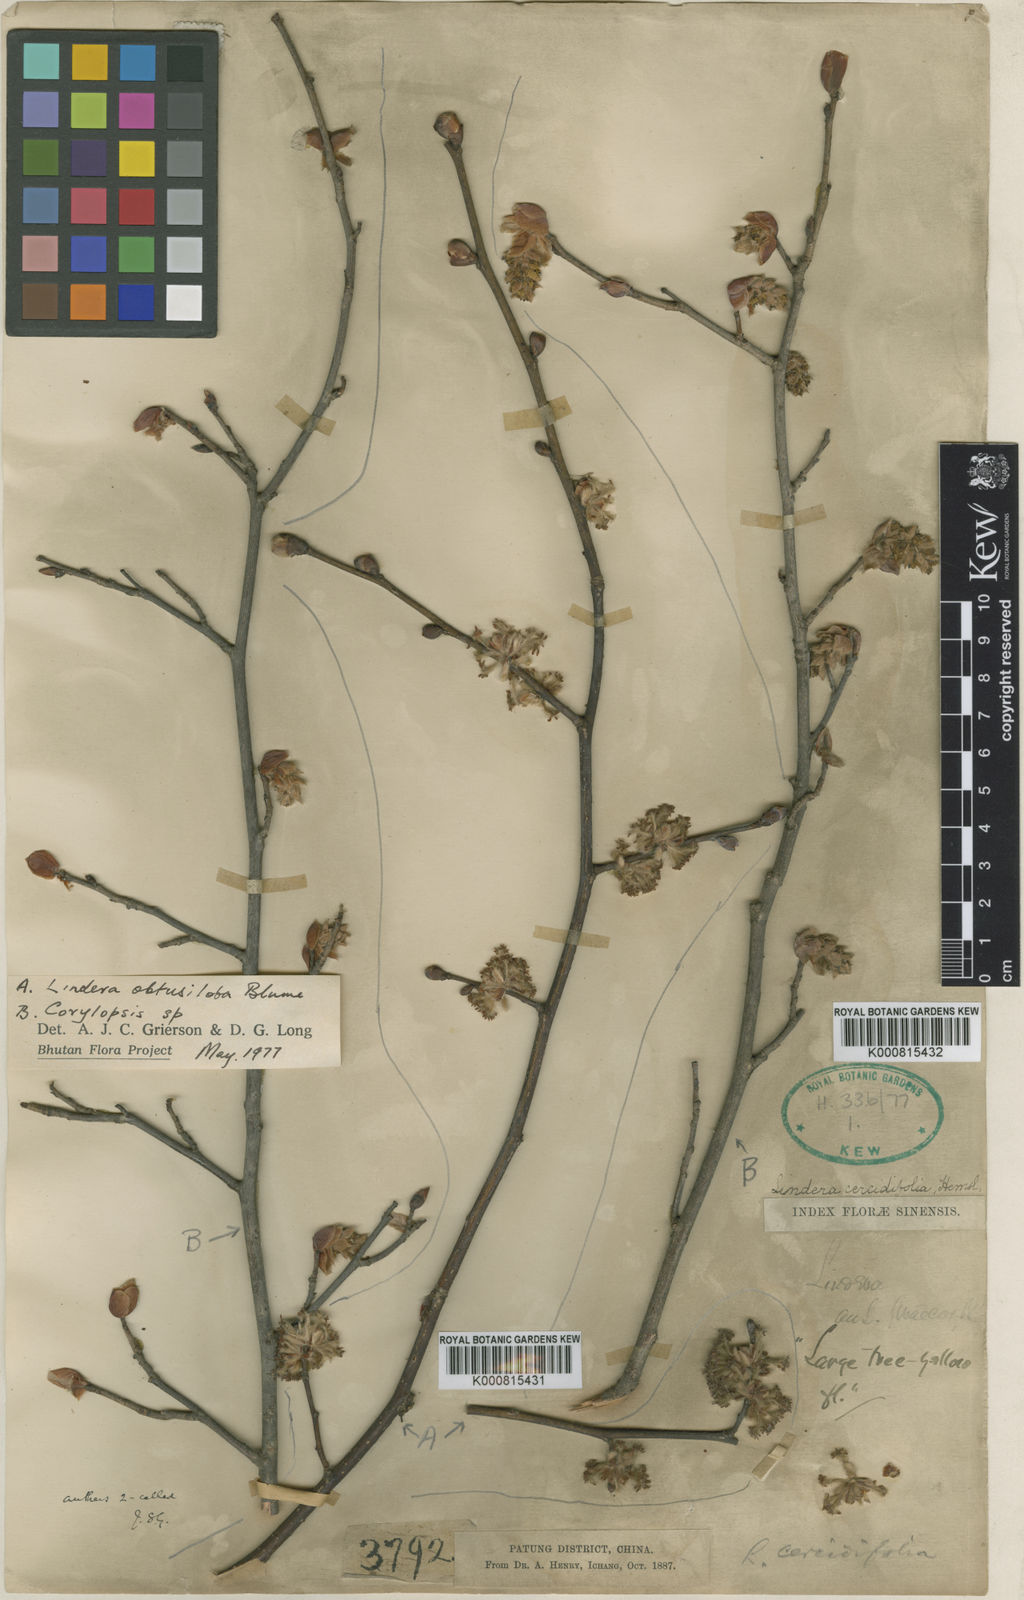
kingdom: Plantae
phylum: Tracheophyta
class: Magnoliopsida
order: Laurales
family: Lauraceae
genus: Lindera
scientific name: Lindera obtusiloba
